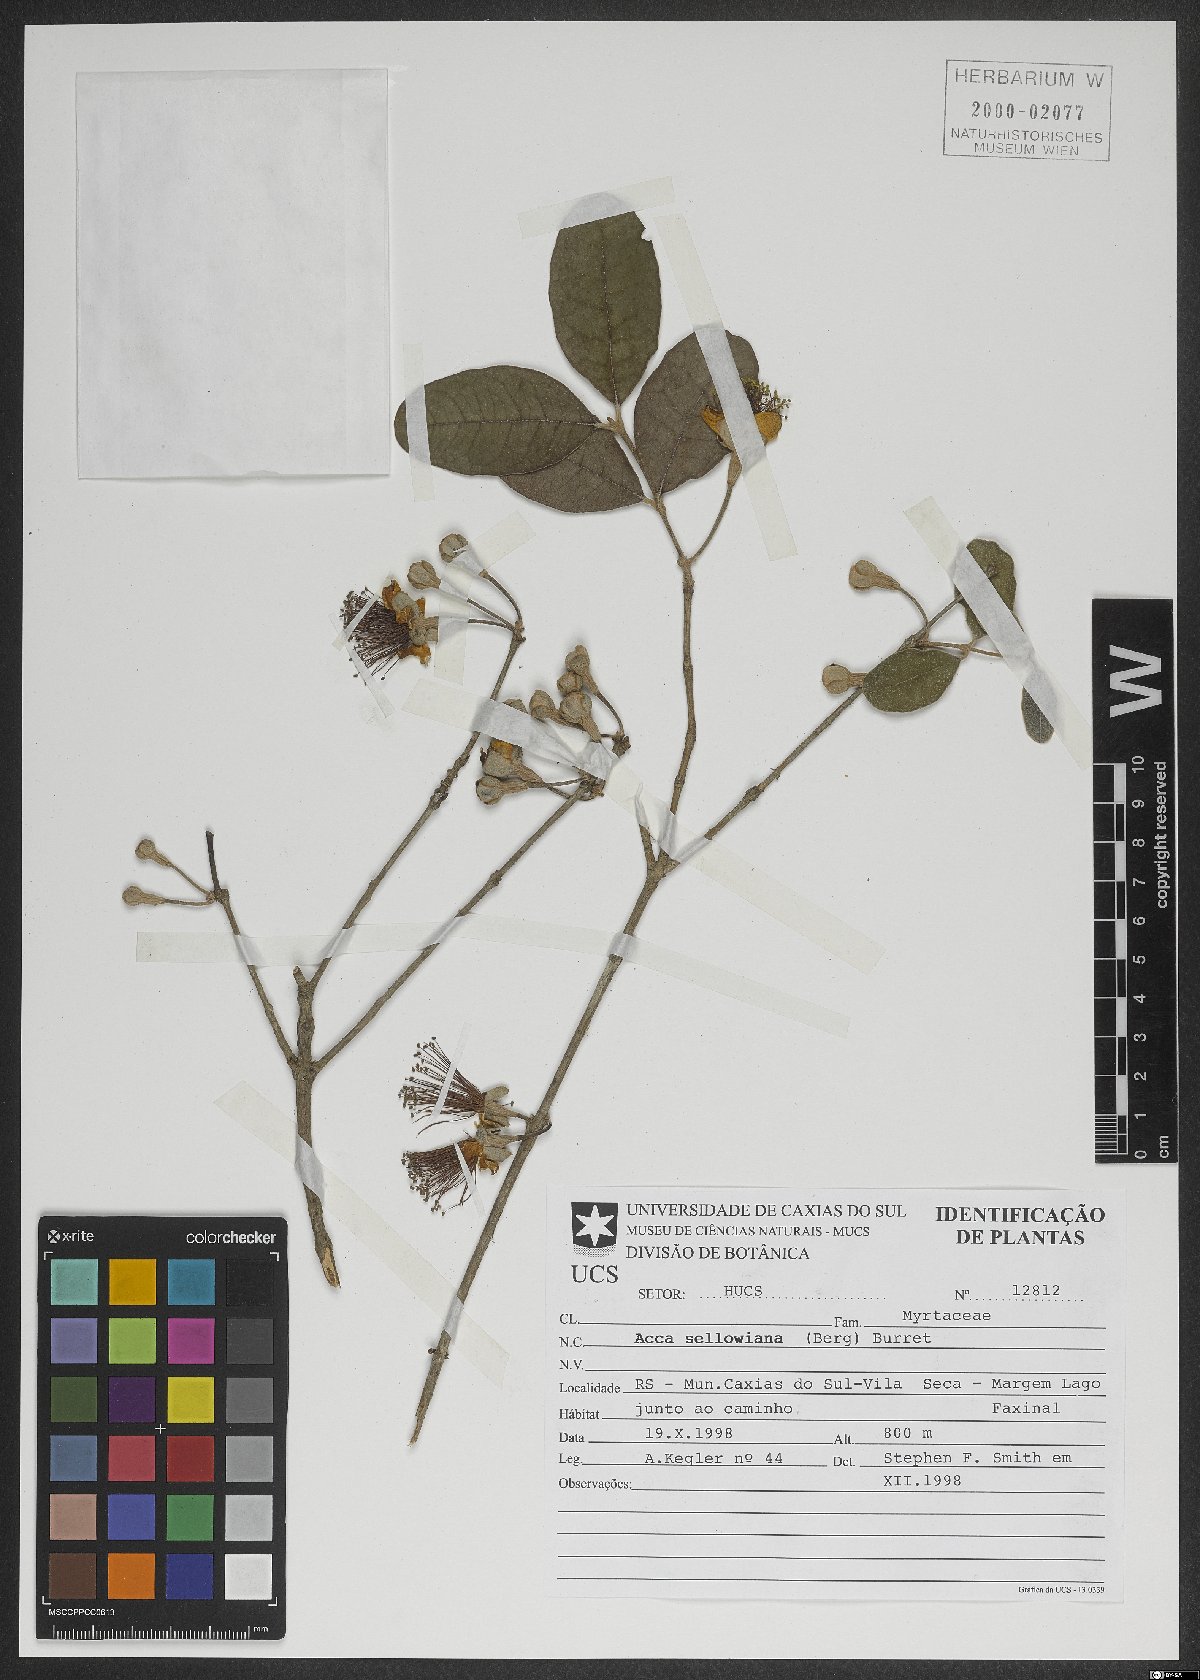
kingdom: Plantae
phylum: Tracheophyta
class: Magnoliopsida
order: Myrtales
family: Myrtaceae
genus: Feijoa
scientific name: Feijoa sellowiana
